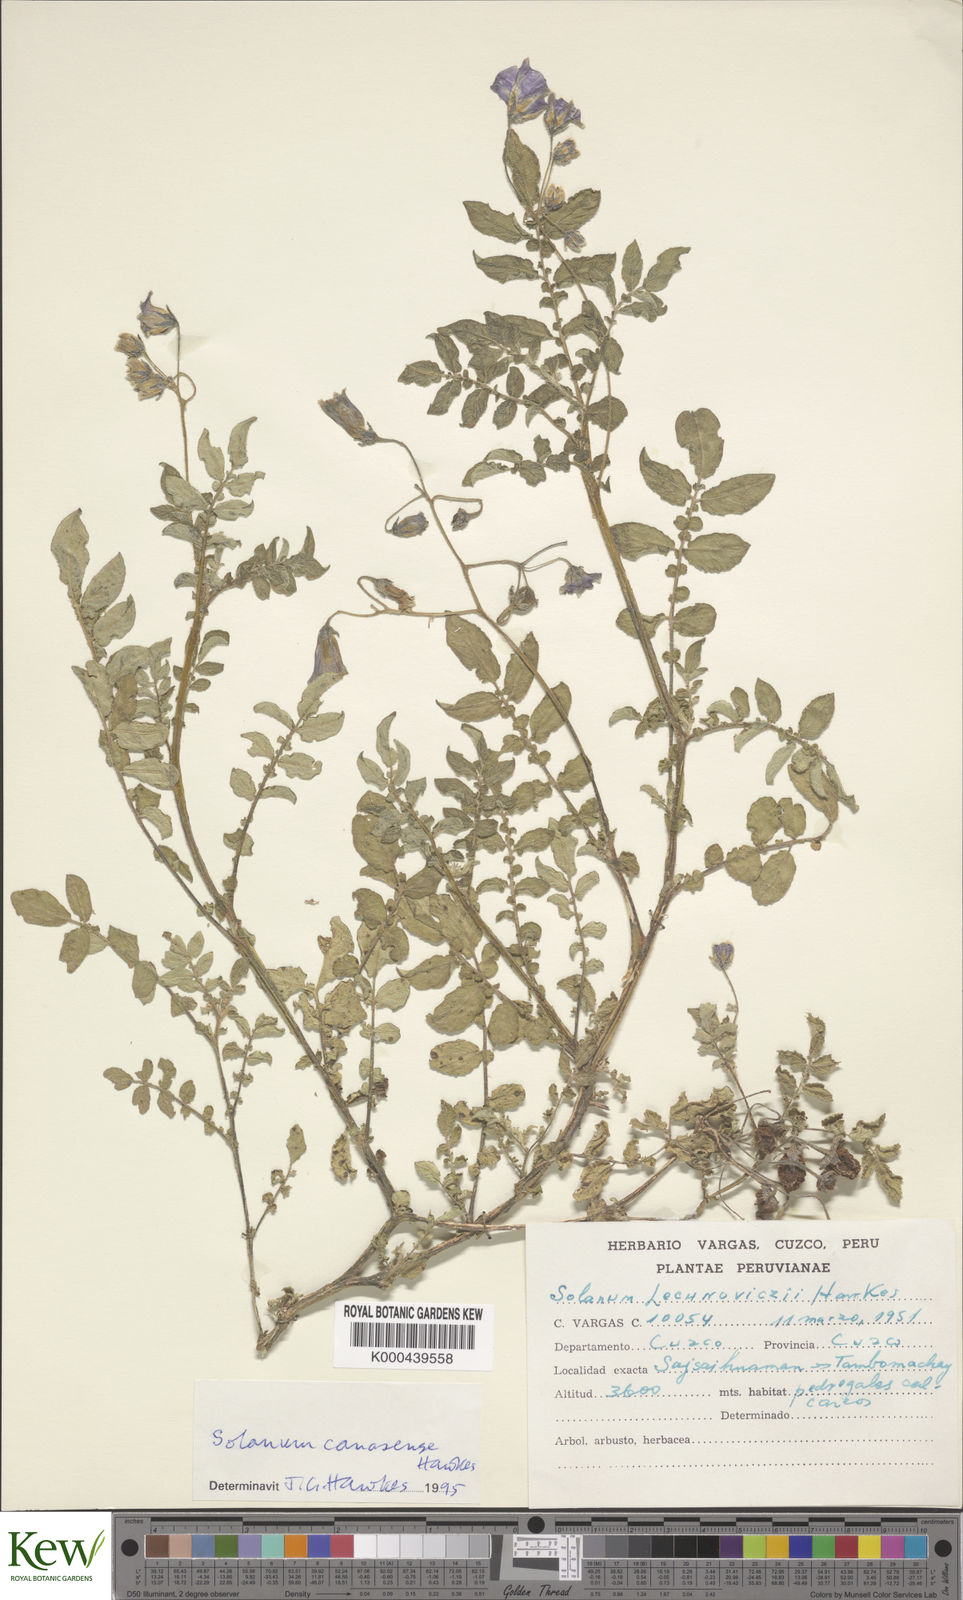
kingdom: Plantae
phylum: Tracheophyta
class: Magnoliopsida
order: Solanales
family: Solanaceae
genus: Solanum
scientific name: Solanum candolleanum
